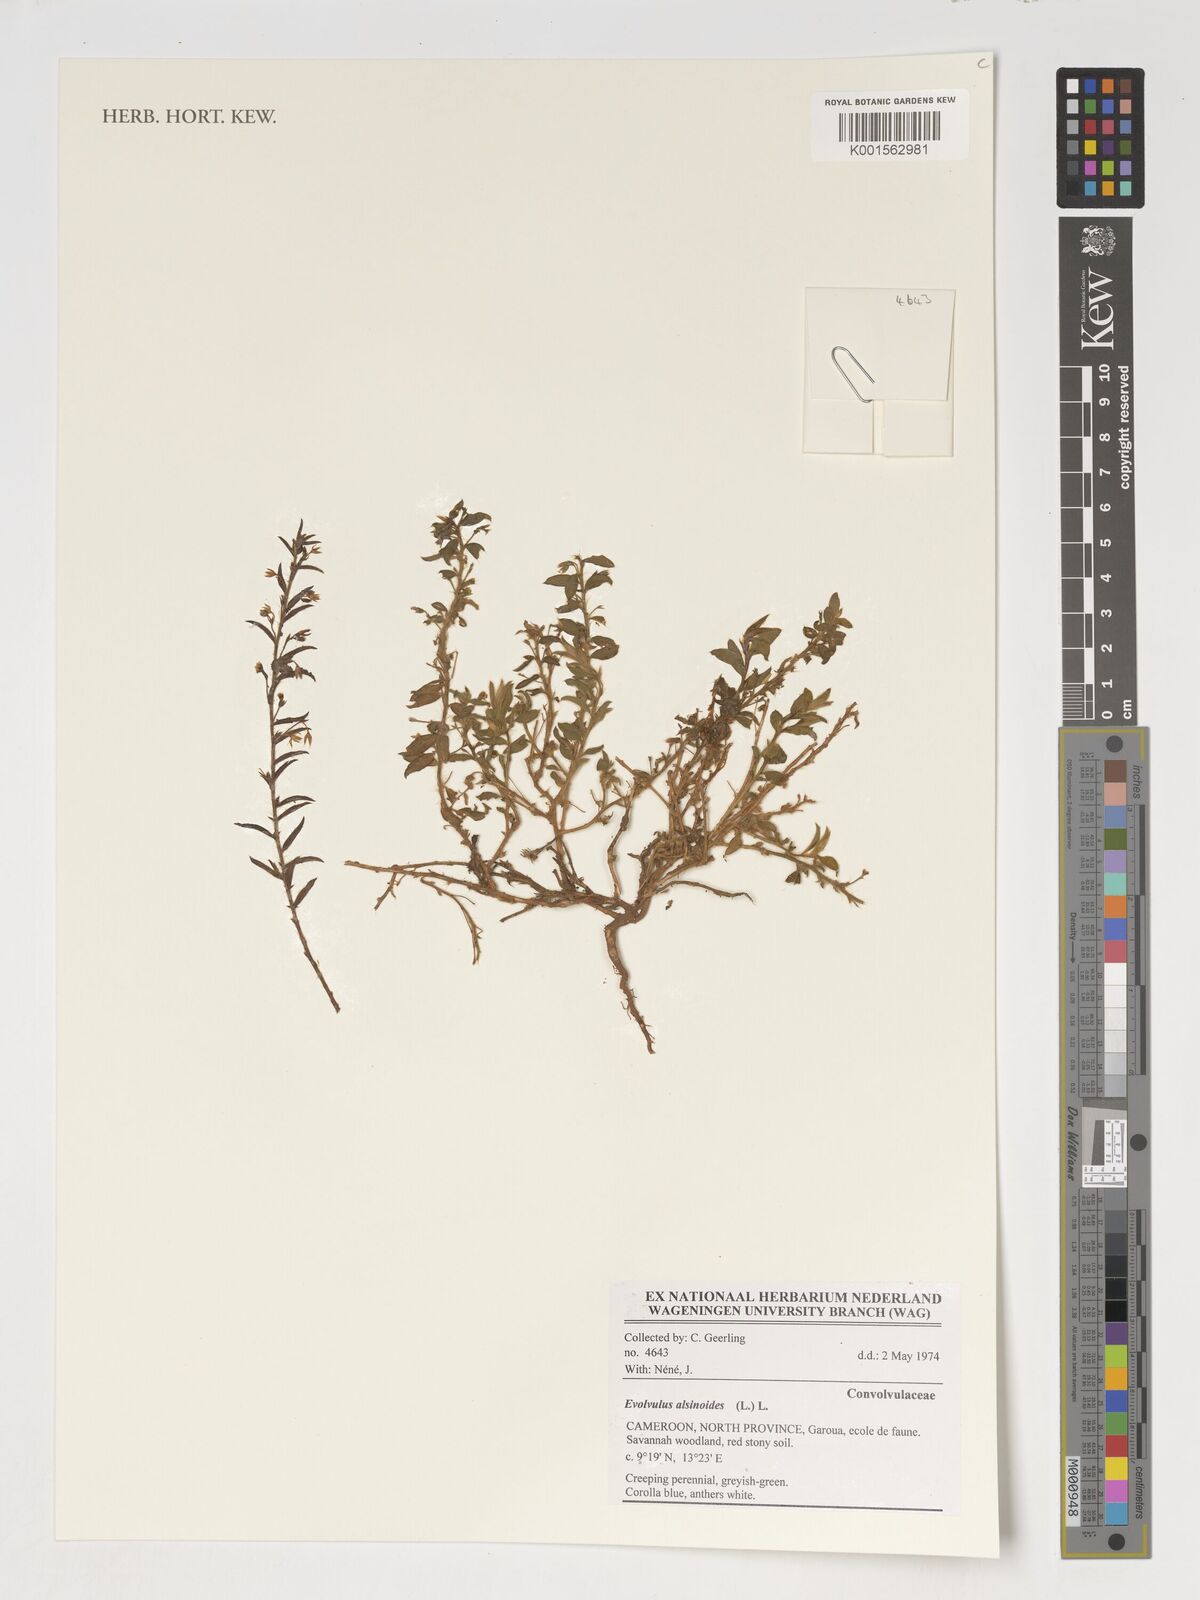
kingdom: Plantae
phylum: Tracheophyta
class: Magnoliopsida
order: Solanales
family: Convolvulaceae
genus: Evolvulus
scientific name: Evolvulus alsinoides
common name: Slender dwarf morning-glory
